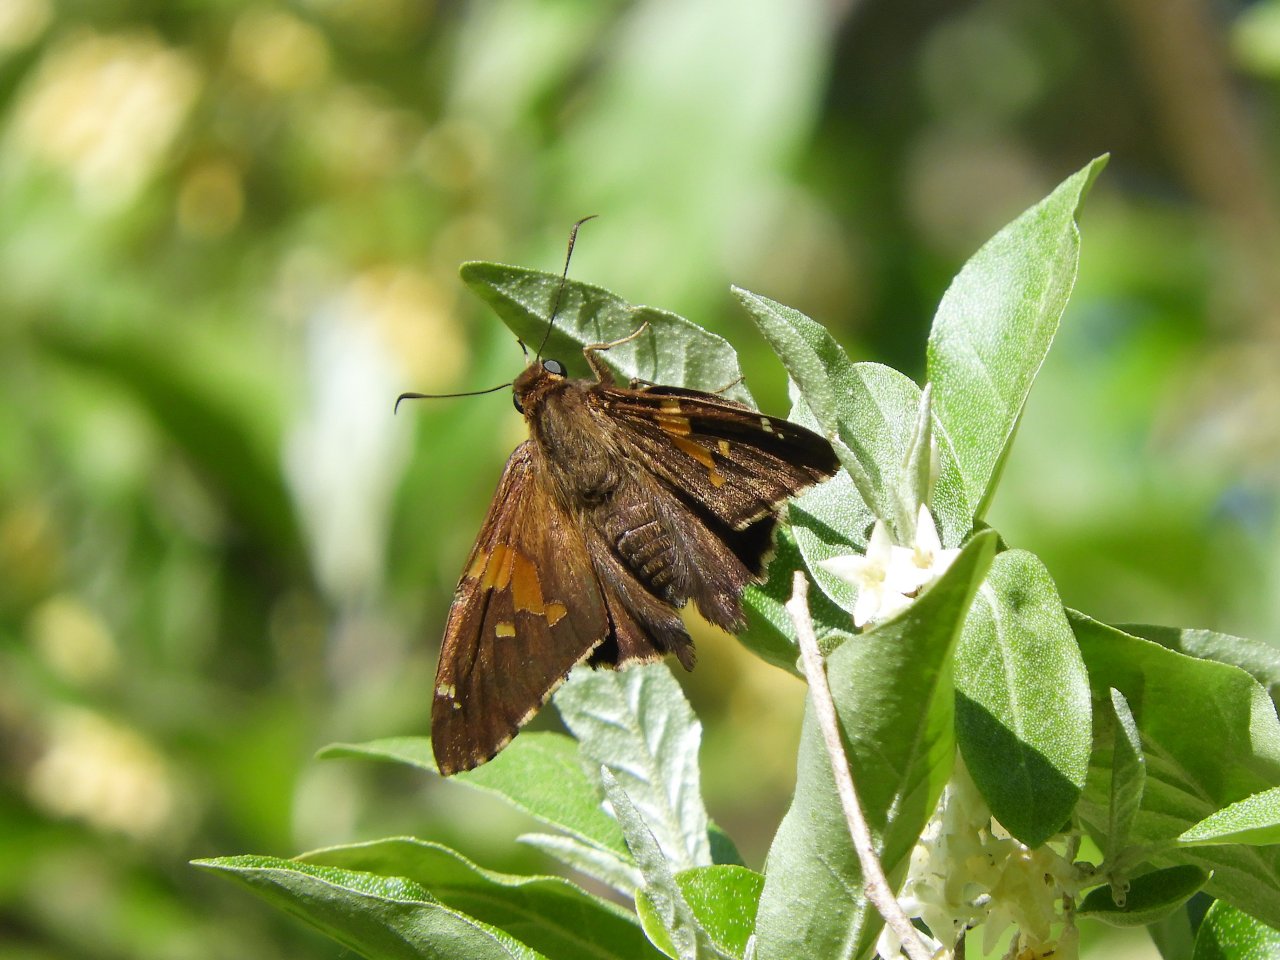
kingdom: Animalia
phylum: Arthropoda
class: Insecta
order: Lepidoptera
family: Hesperiidae
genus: Epargyreus
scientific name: Epargyreus clarus
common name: Silver-spotted Skipper
